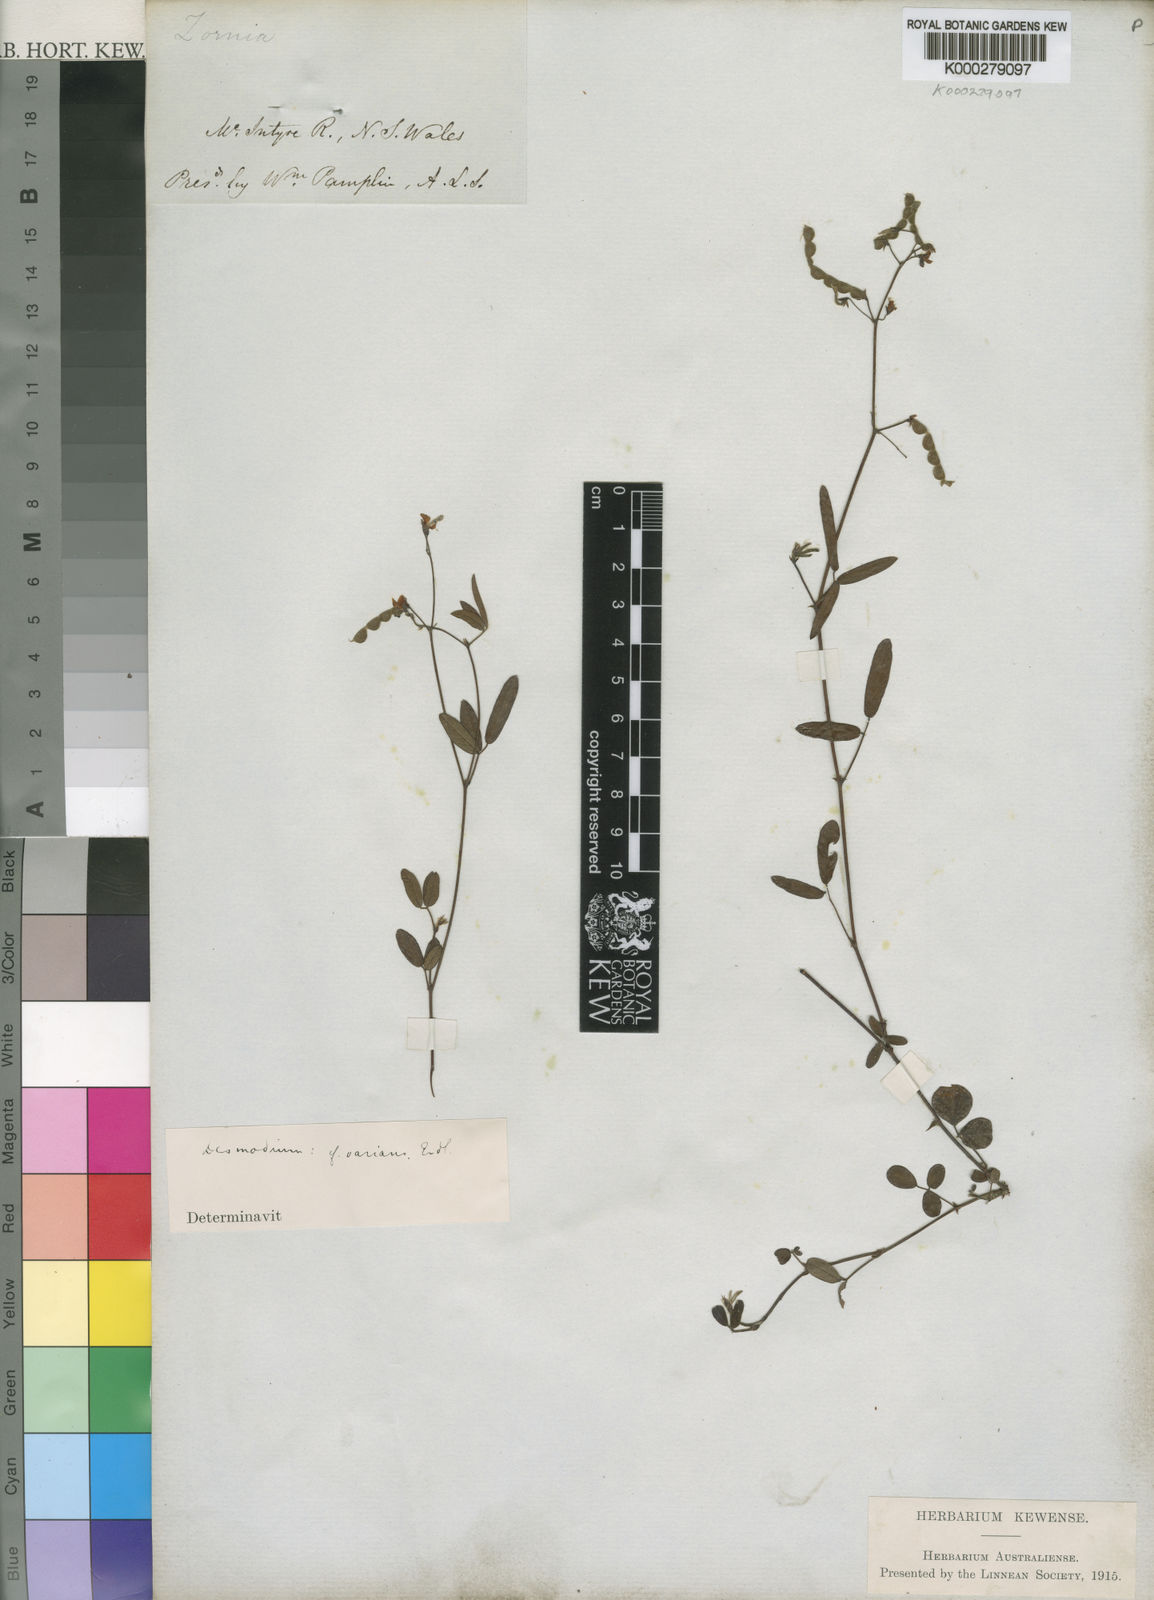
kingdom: Plantae
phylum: Tracheophyta
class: Magnoliopsida
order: Fabales
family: Fabaceae
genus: Grona
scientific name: Grona varians
